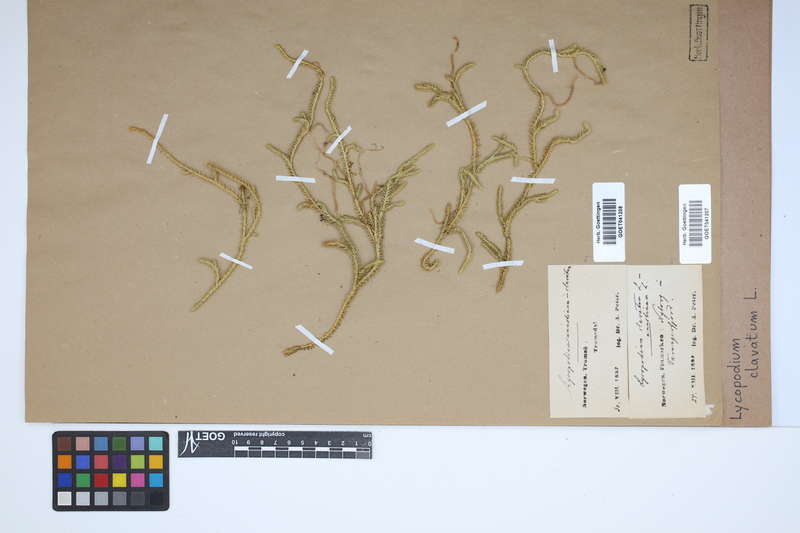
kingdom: Plantae
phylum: Tracheophyta
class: Lycopodiopsida
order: Lycopodiales
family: Lycopodiaceae
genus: Lycopodium
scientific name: Lycopodium clavatum
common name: Stag's-horn clubmoss
